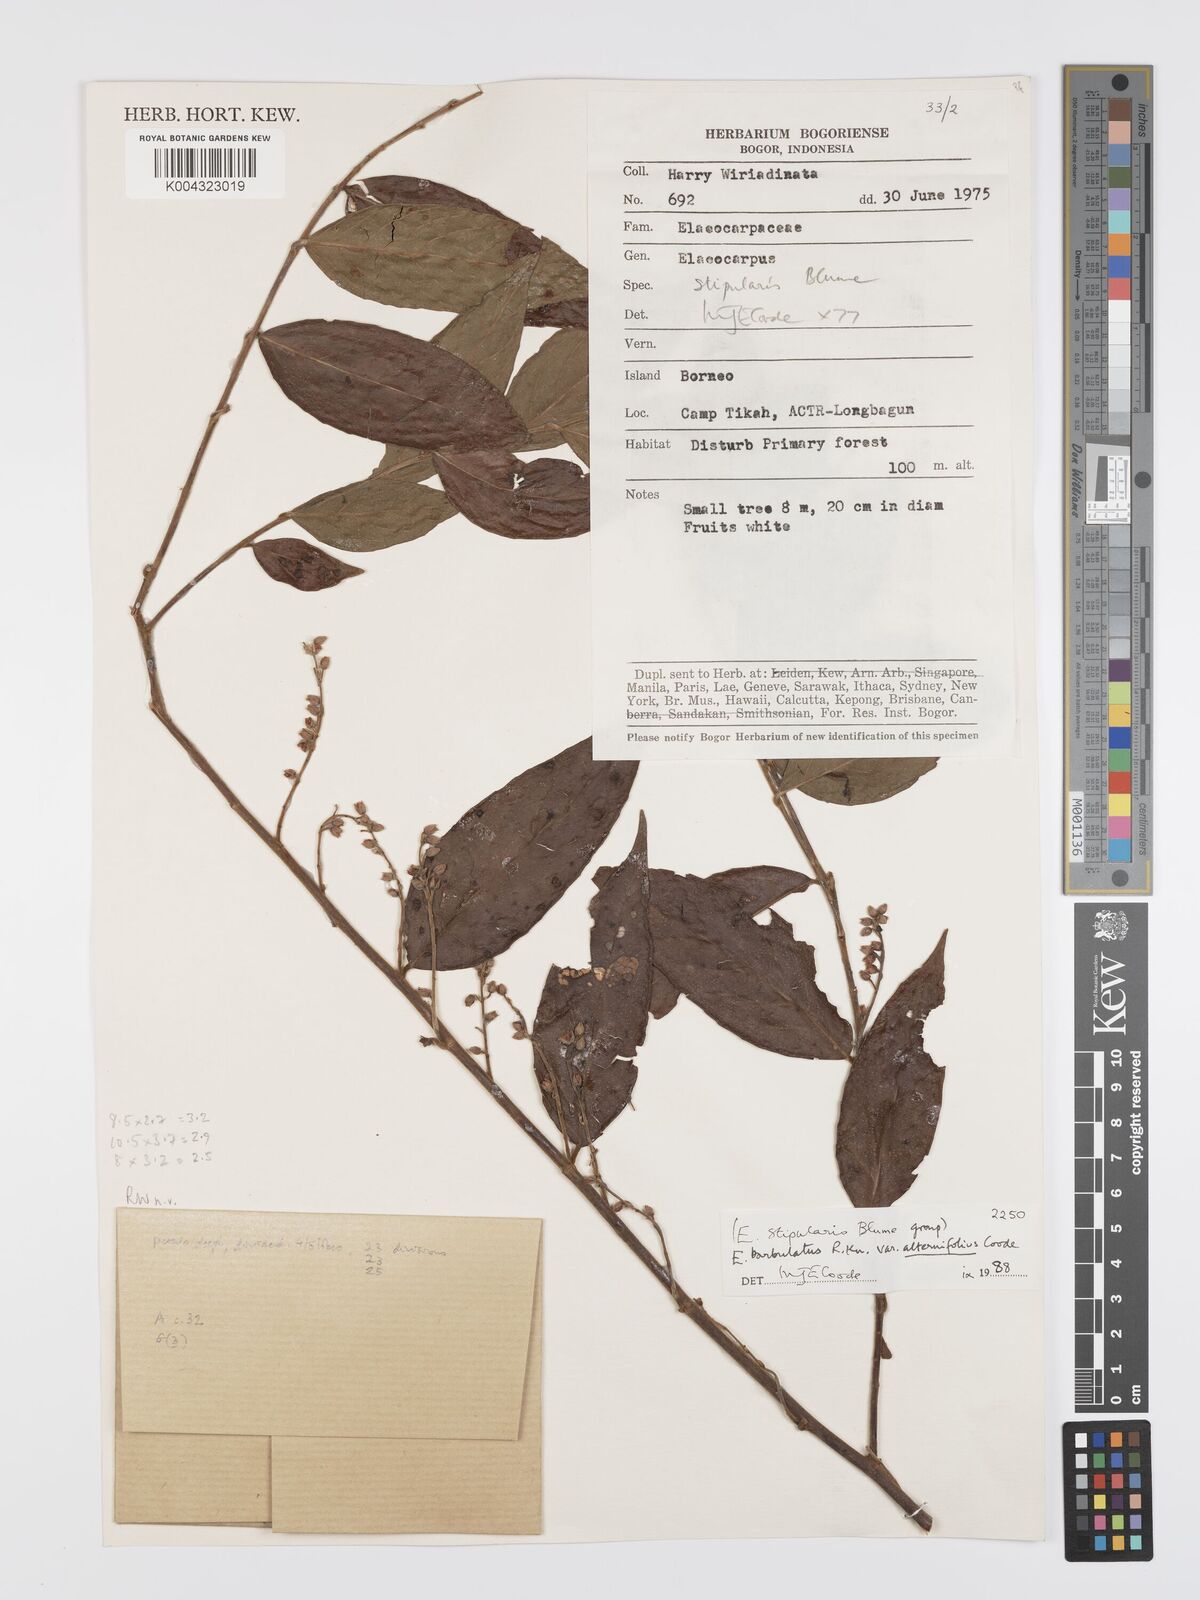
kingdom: Plantae
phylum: Tracheophyta
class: Magnoliopsida
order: Oxalidales
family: Elaeocarpaceae
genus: Elaeocarpus
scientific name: Elaeocarpus barbulatus
